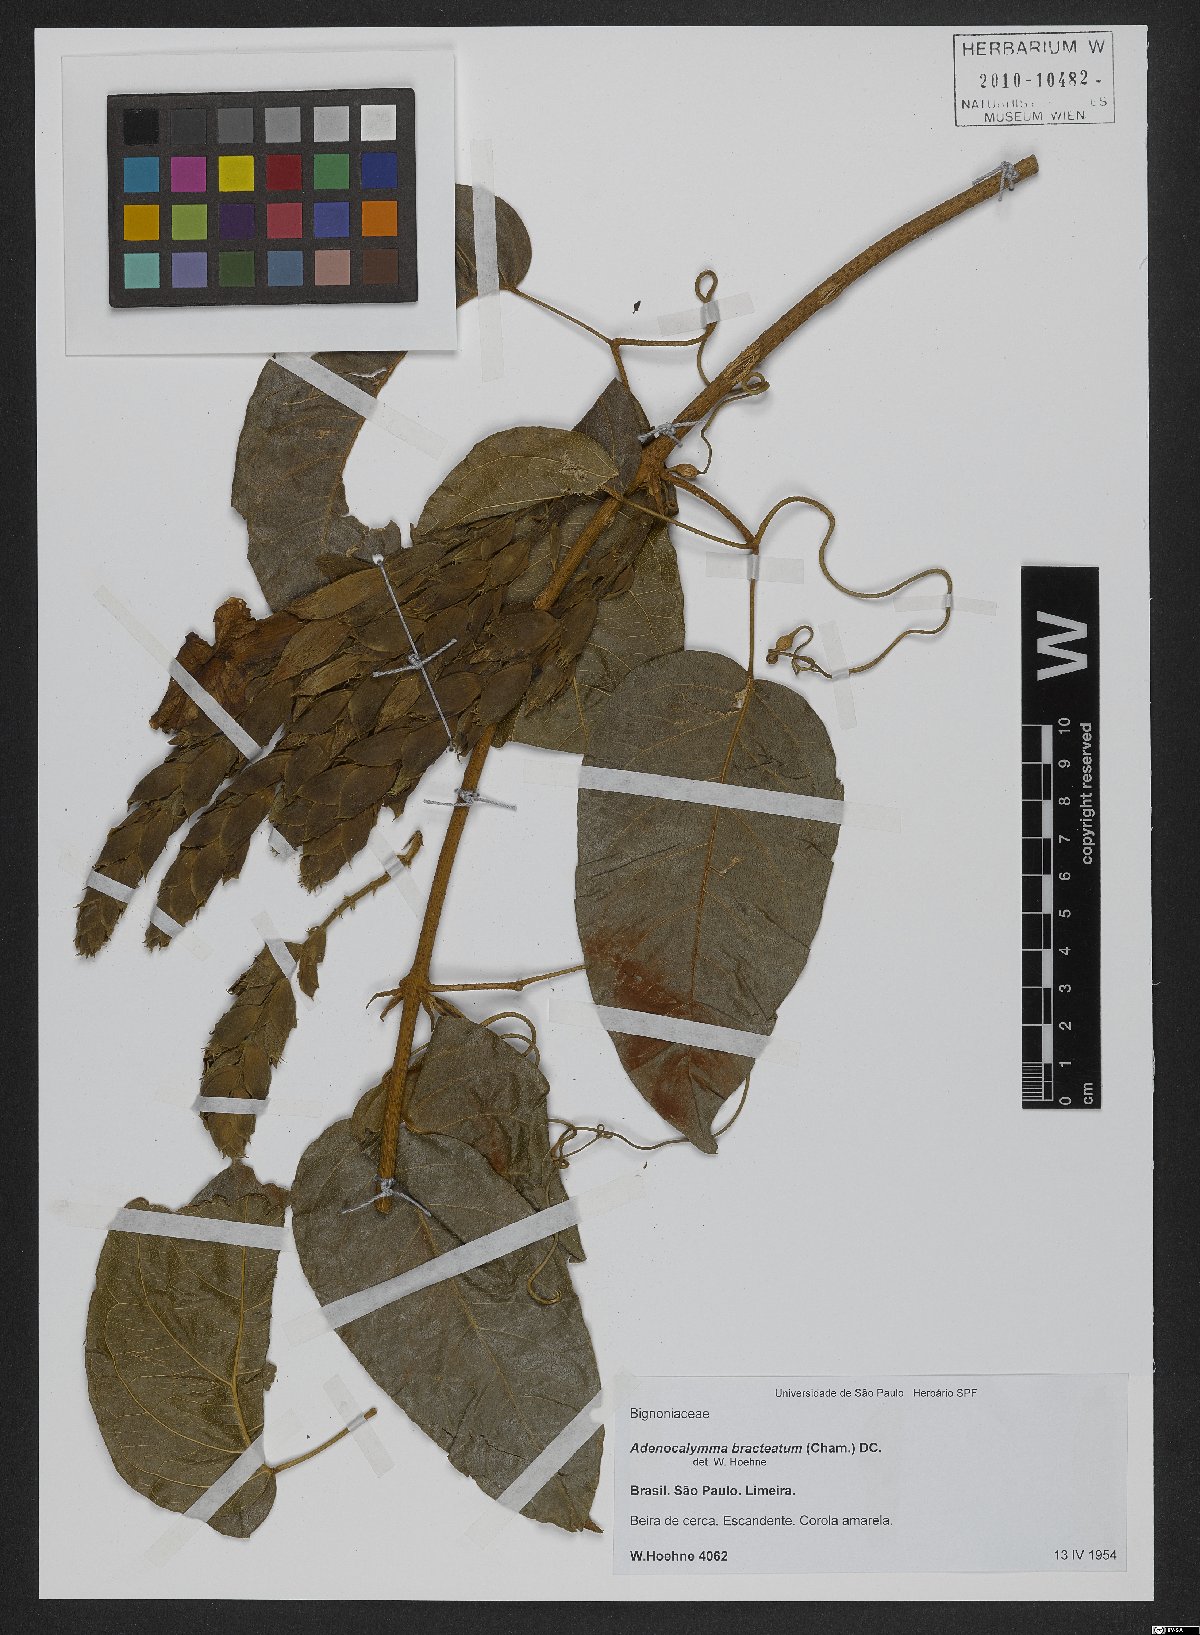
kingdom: Plantae
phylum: Tracheophyta
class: Magnoliopsida
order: Lamiales
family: Bignoniaceae
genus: Adenocalymma
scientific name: Adenocalymma bracteatum
